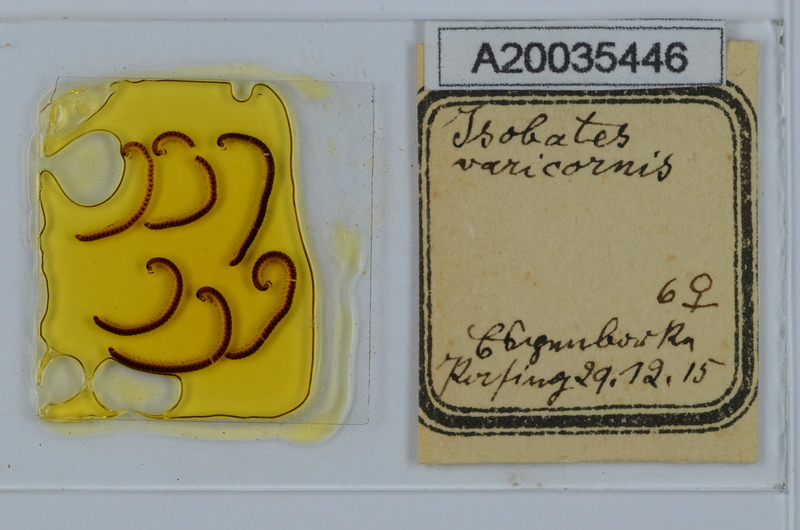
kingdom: Animalia
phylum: Arthropoda
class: Diplopoda
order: Julida
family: Nemasomatidae
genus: Isobates
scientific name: Isobates varicornis
